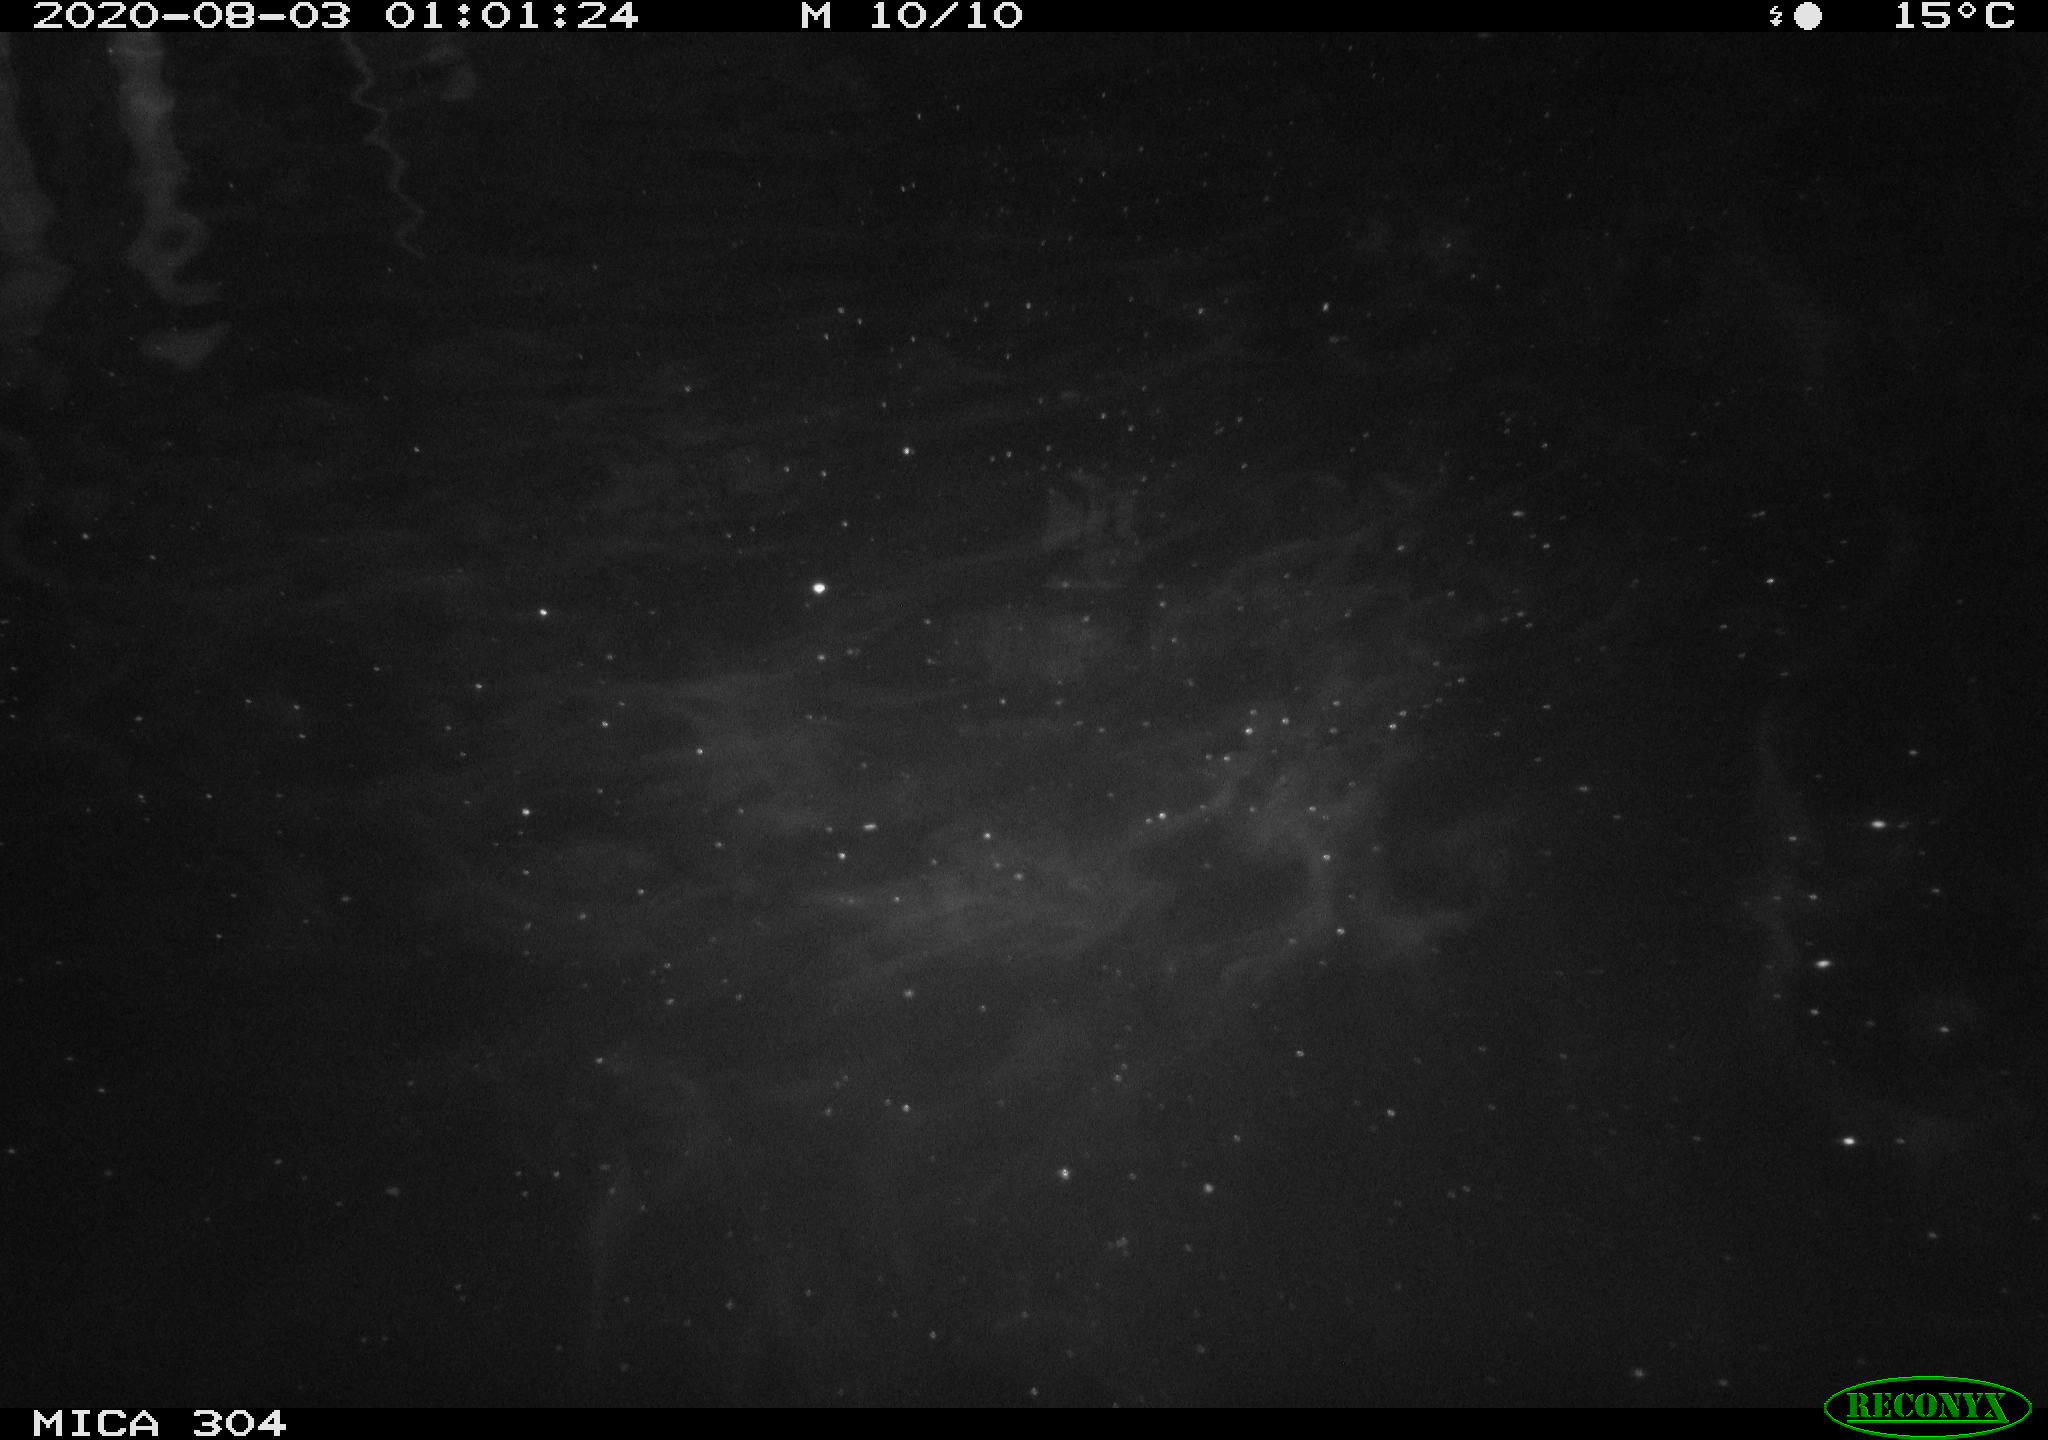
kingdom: Animalia
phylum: Chordata
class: Mammalia
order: Rodentia
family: Cricetidae
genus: Ondatra
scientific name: Ondatra zibethicus
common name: Muskrat
